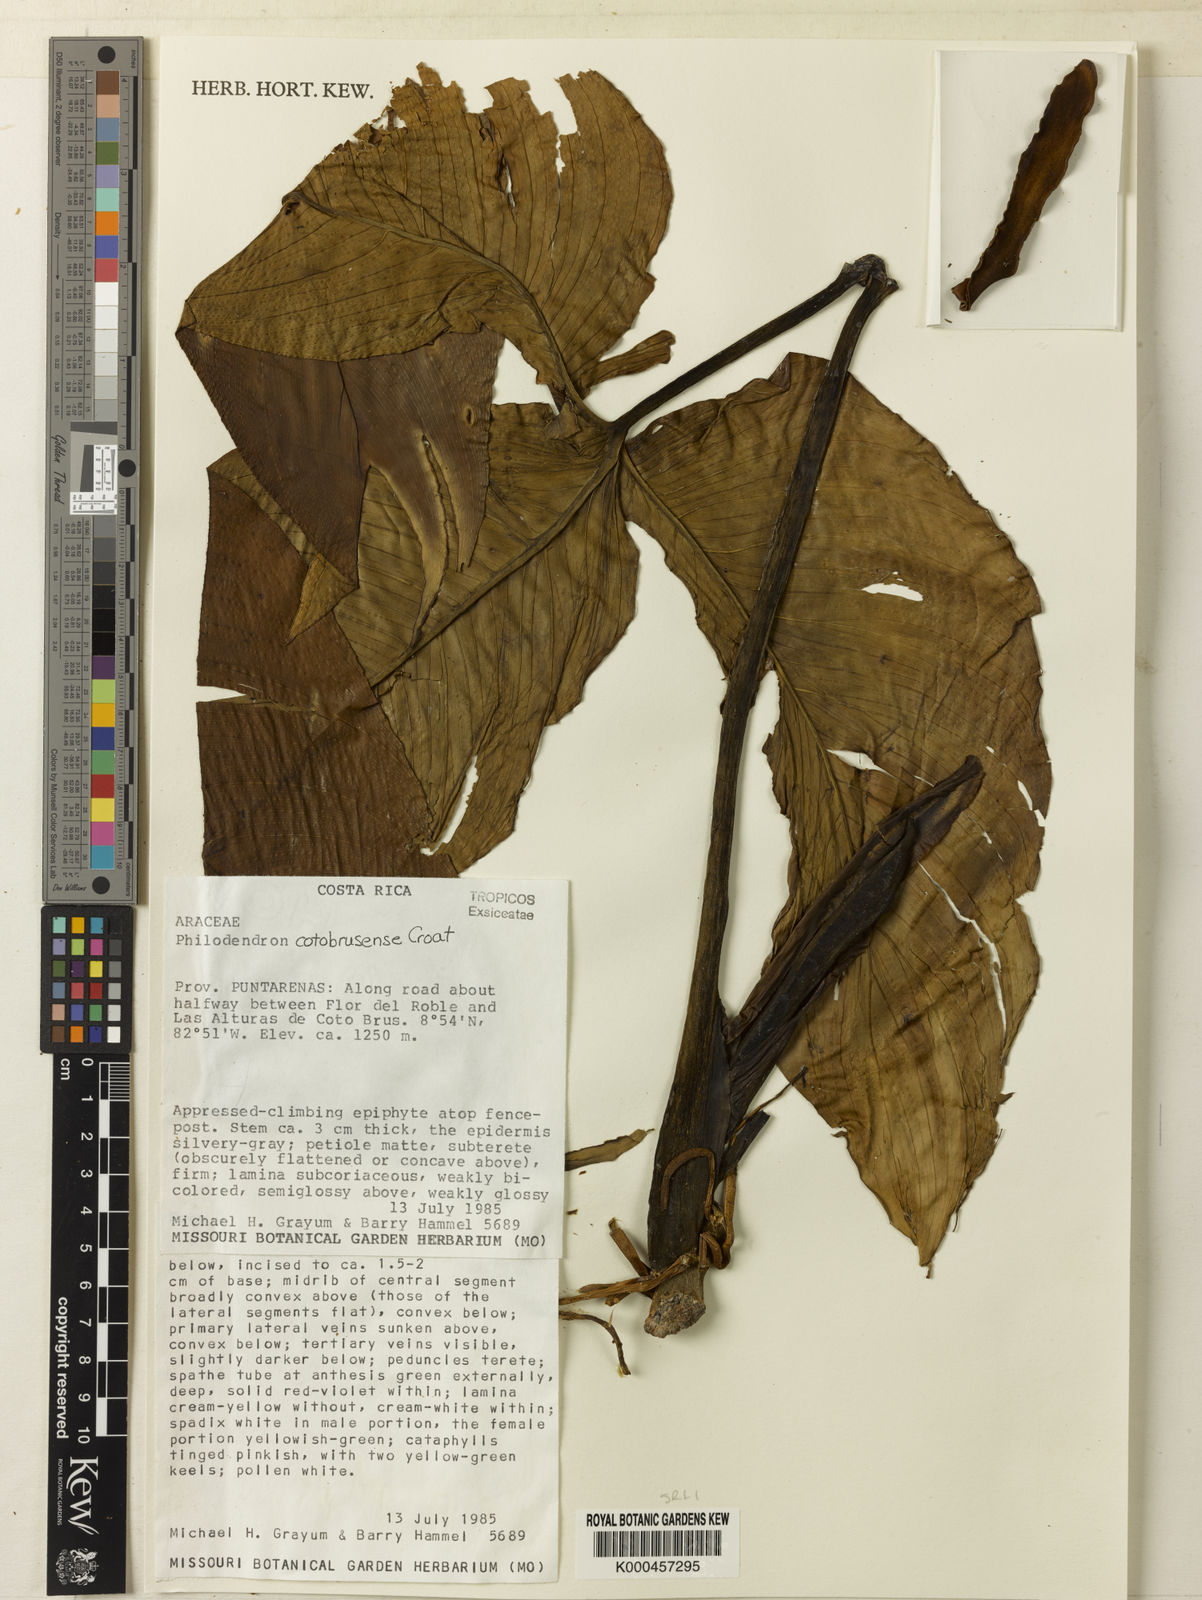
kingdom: Plantae
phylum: Tracheophyta
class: Liliopsida
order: Alismatales
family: Araceae
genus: Philodendron
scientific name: Philodendron cotobrusense
